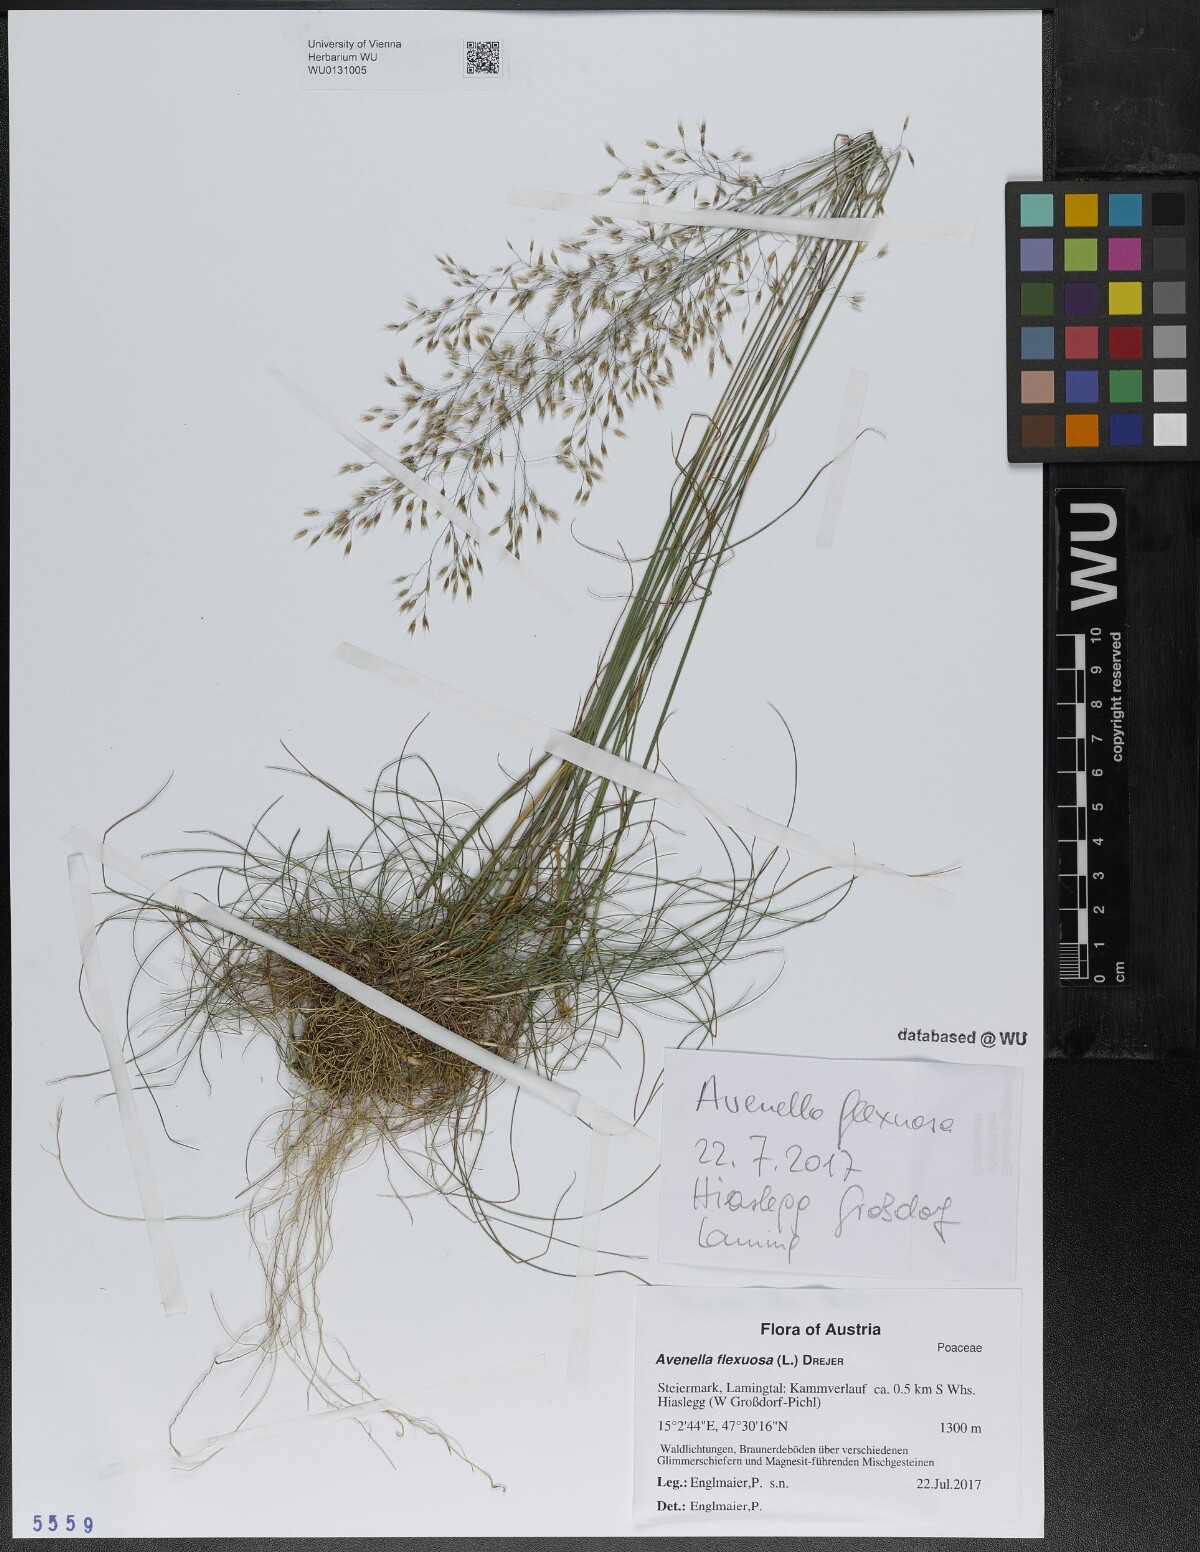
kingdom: Plantae
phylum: Tracheophyta
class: Liliopsida
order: Poales
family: Poaceae
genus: Avenella
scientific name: Avenella flexuosa
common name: Wavy hairgrass
